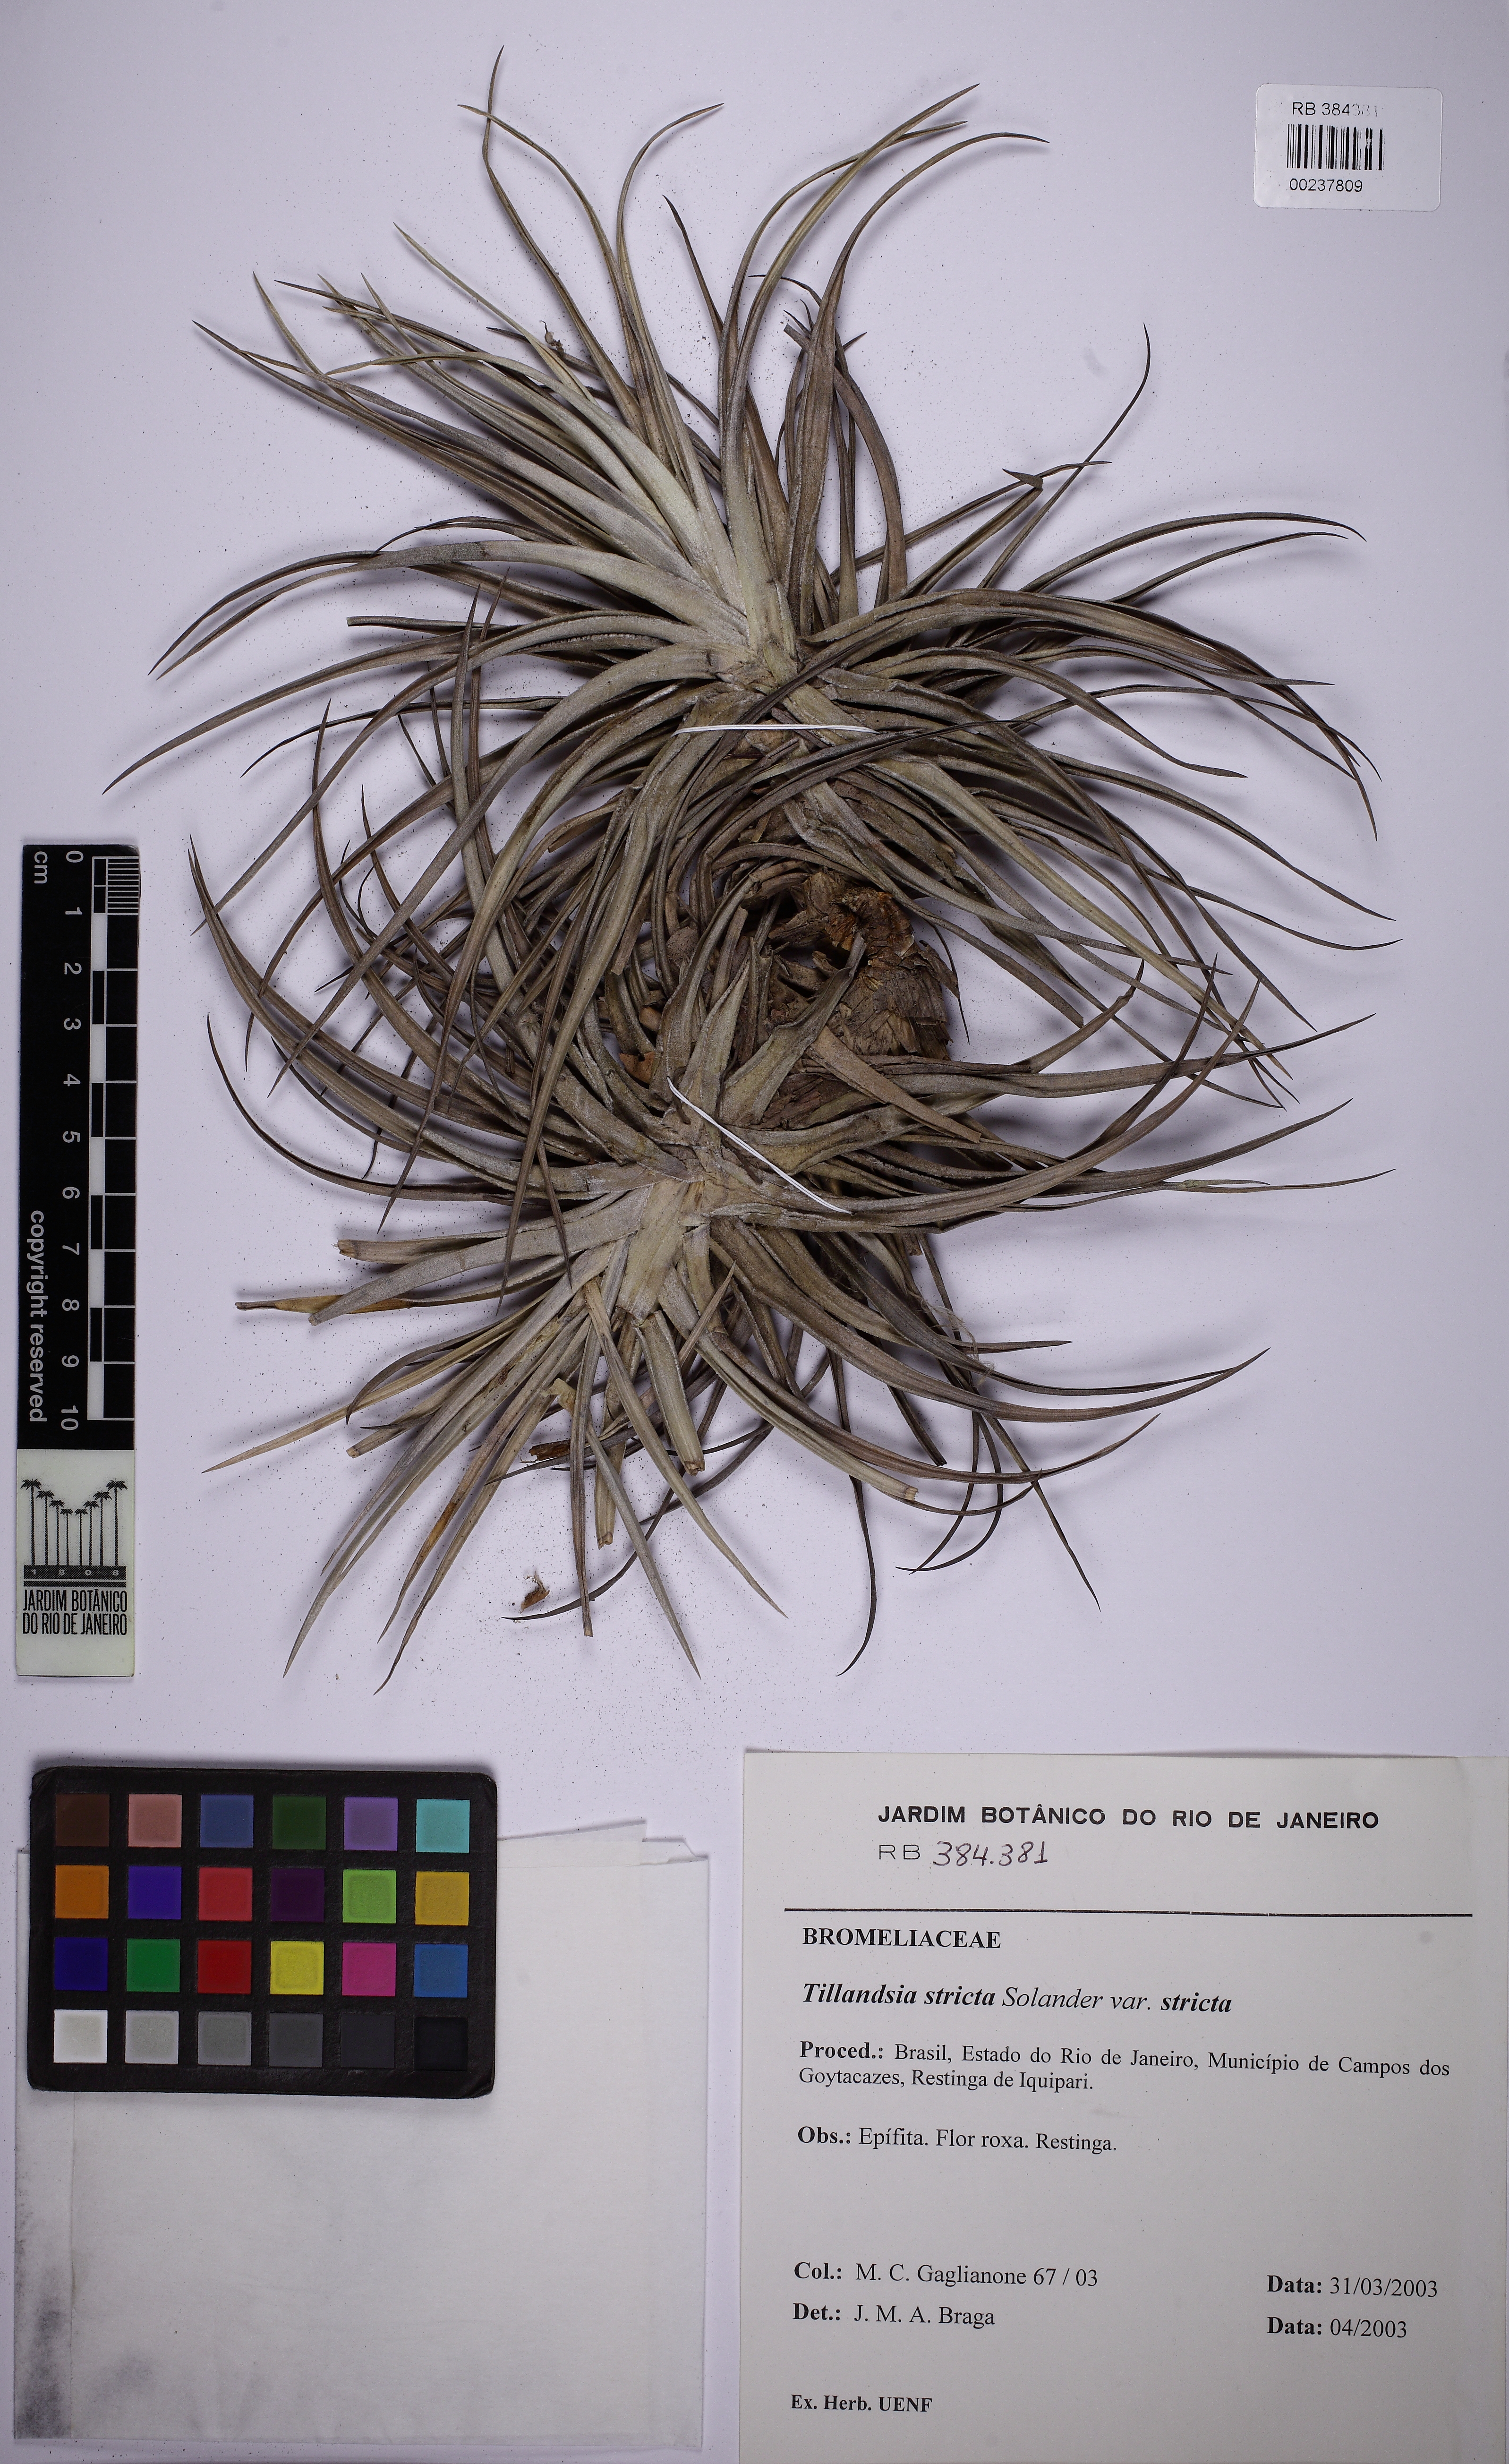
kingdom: Plantae
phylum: Tracheophyta
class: Liliopsida
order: Poales
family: Bromeliaceae
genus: Tillandsia
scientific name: Tillandsia stricta
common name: Airplant
